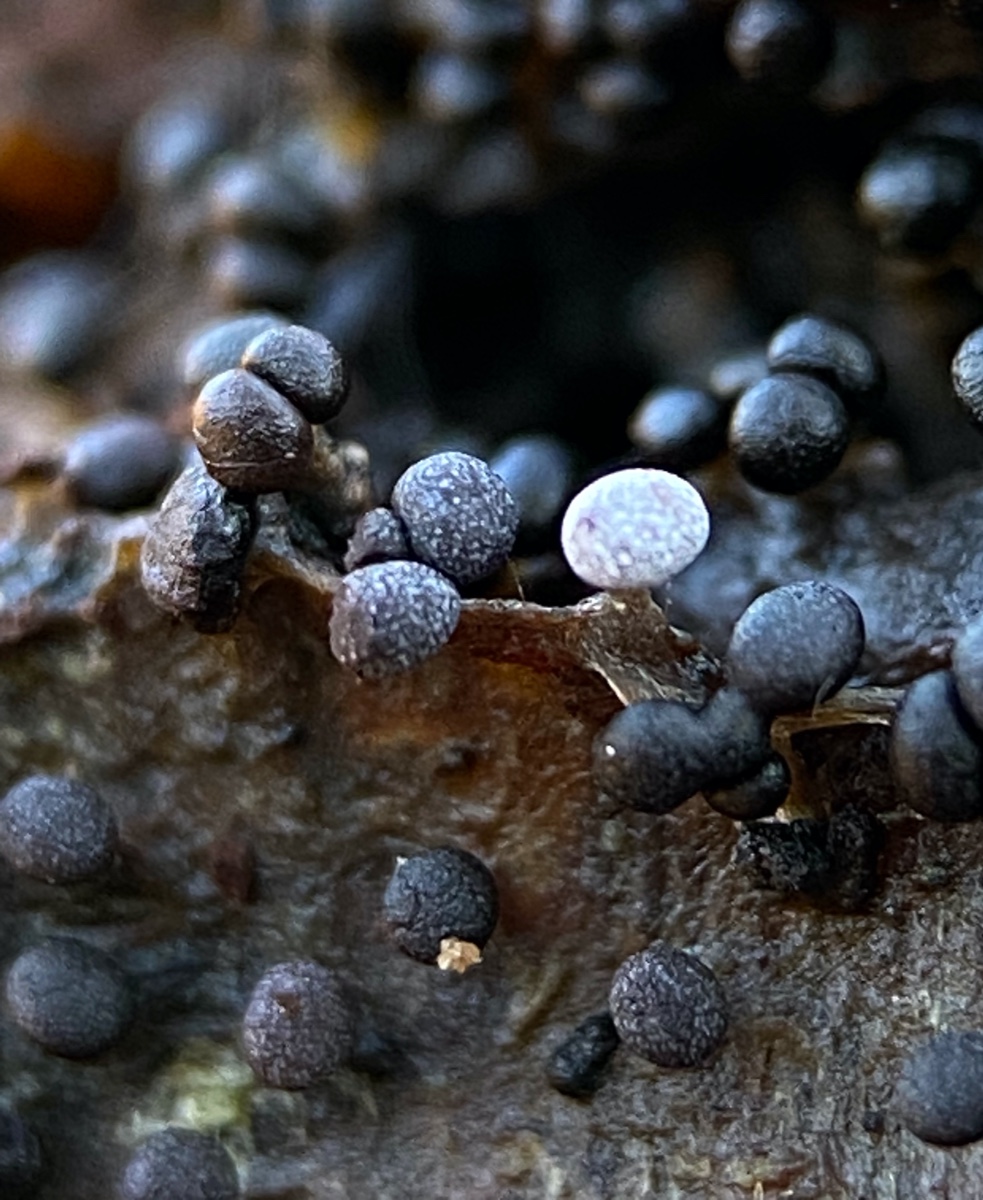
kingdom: Protozoa
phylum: Mycetozoa
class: Myxomycetes
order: Physarales
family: Physaraceae
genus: Physarum
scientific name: Physarum
